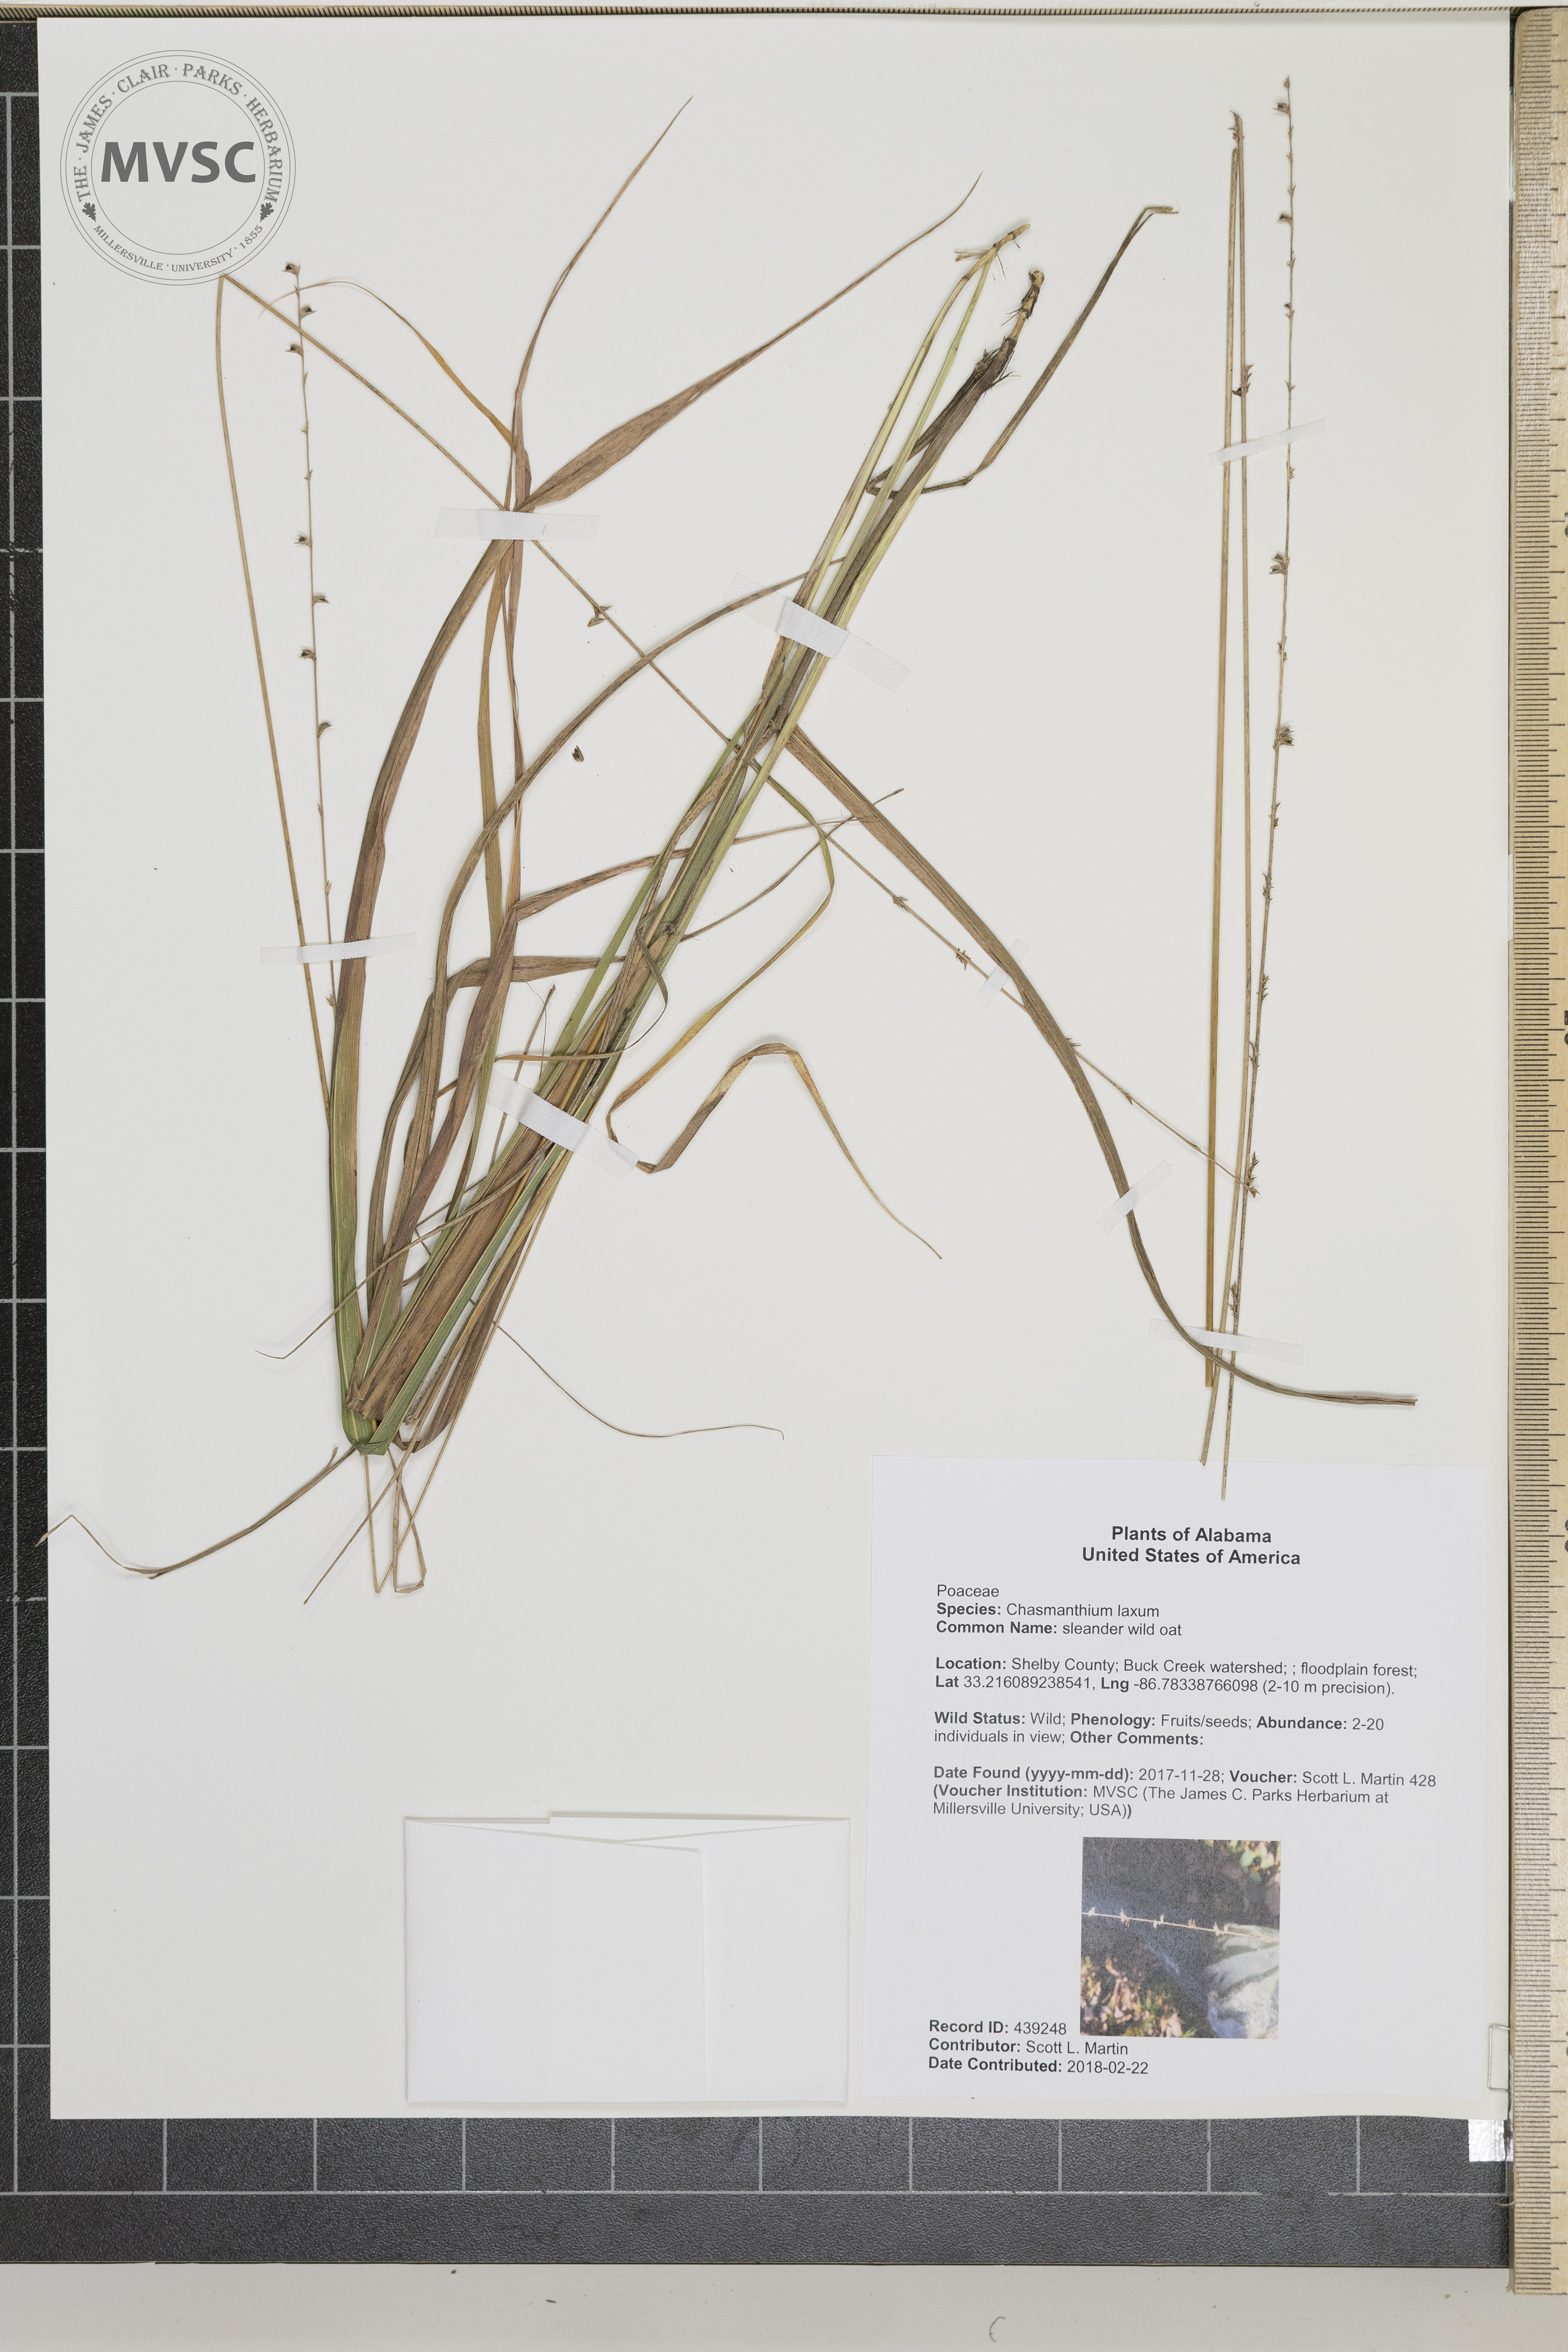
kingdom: Plantae
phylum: Tracheophyta
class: Liliopsida
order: Poales
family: Poaceae
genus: Chasmanthium
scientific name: Chasmanthium laxum
